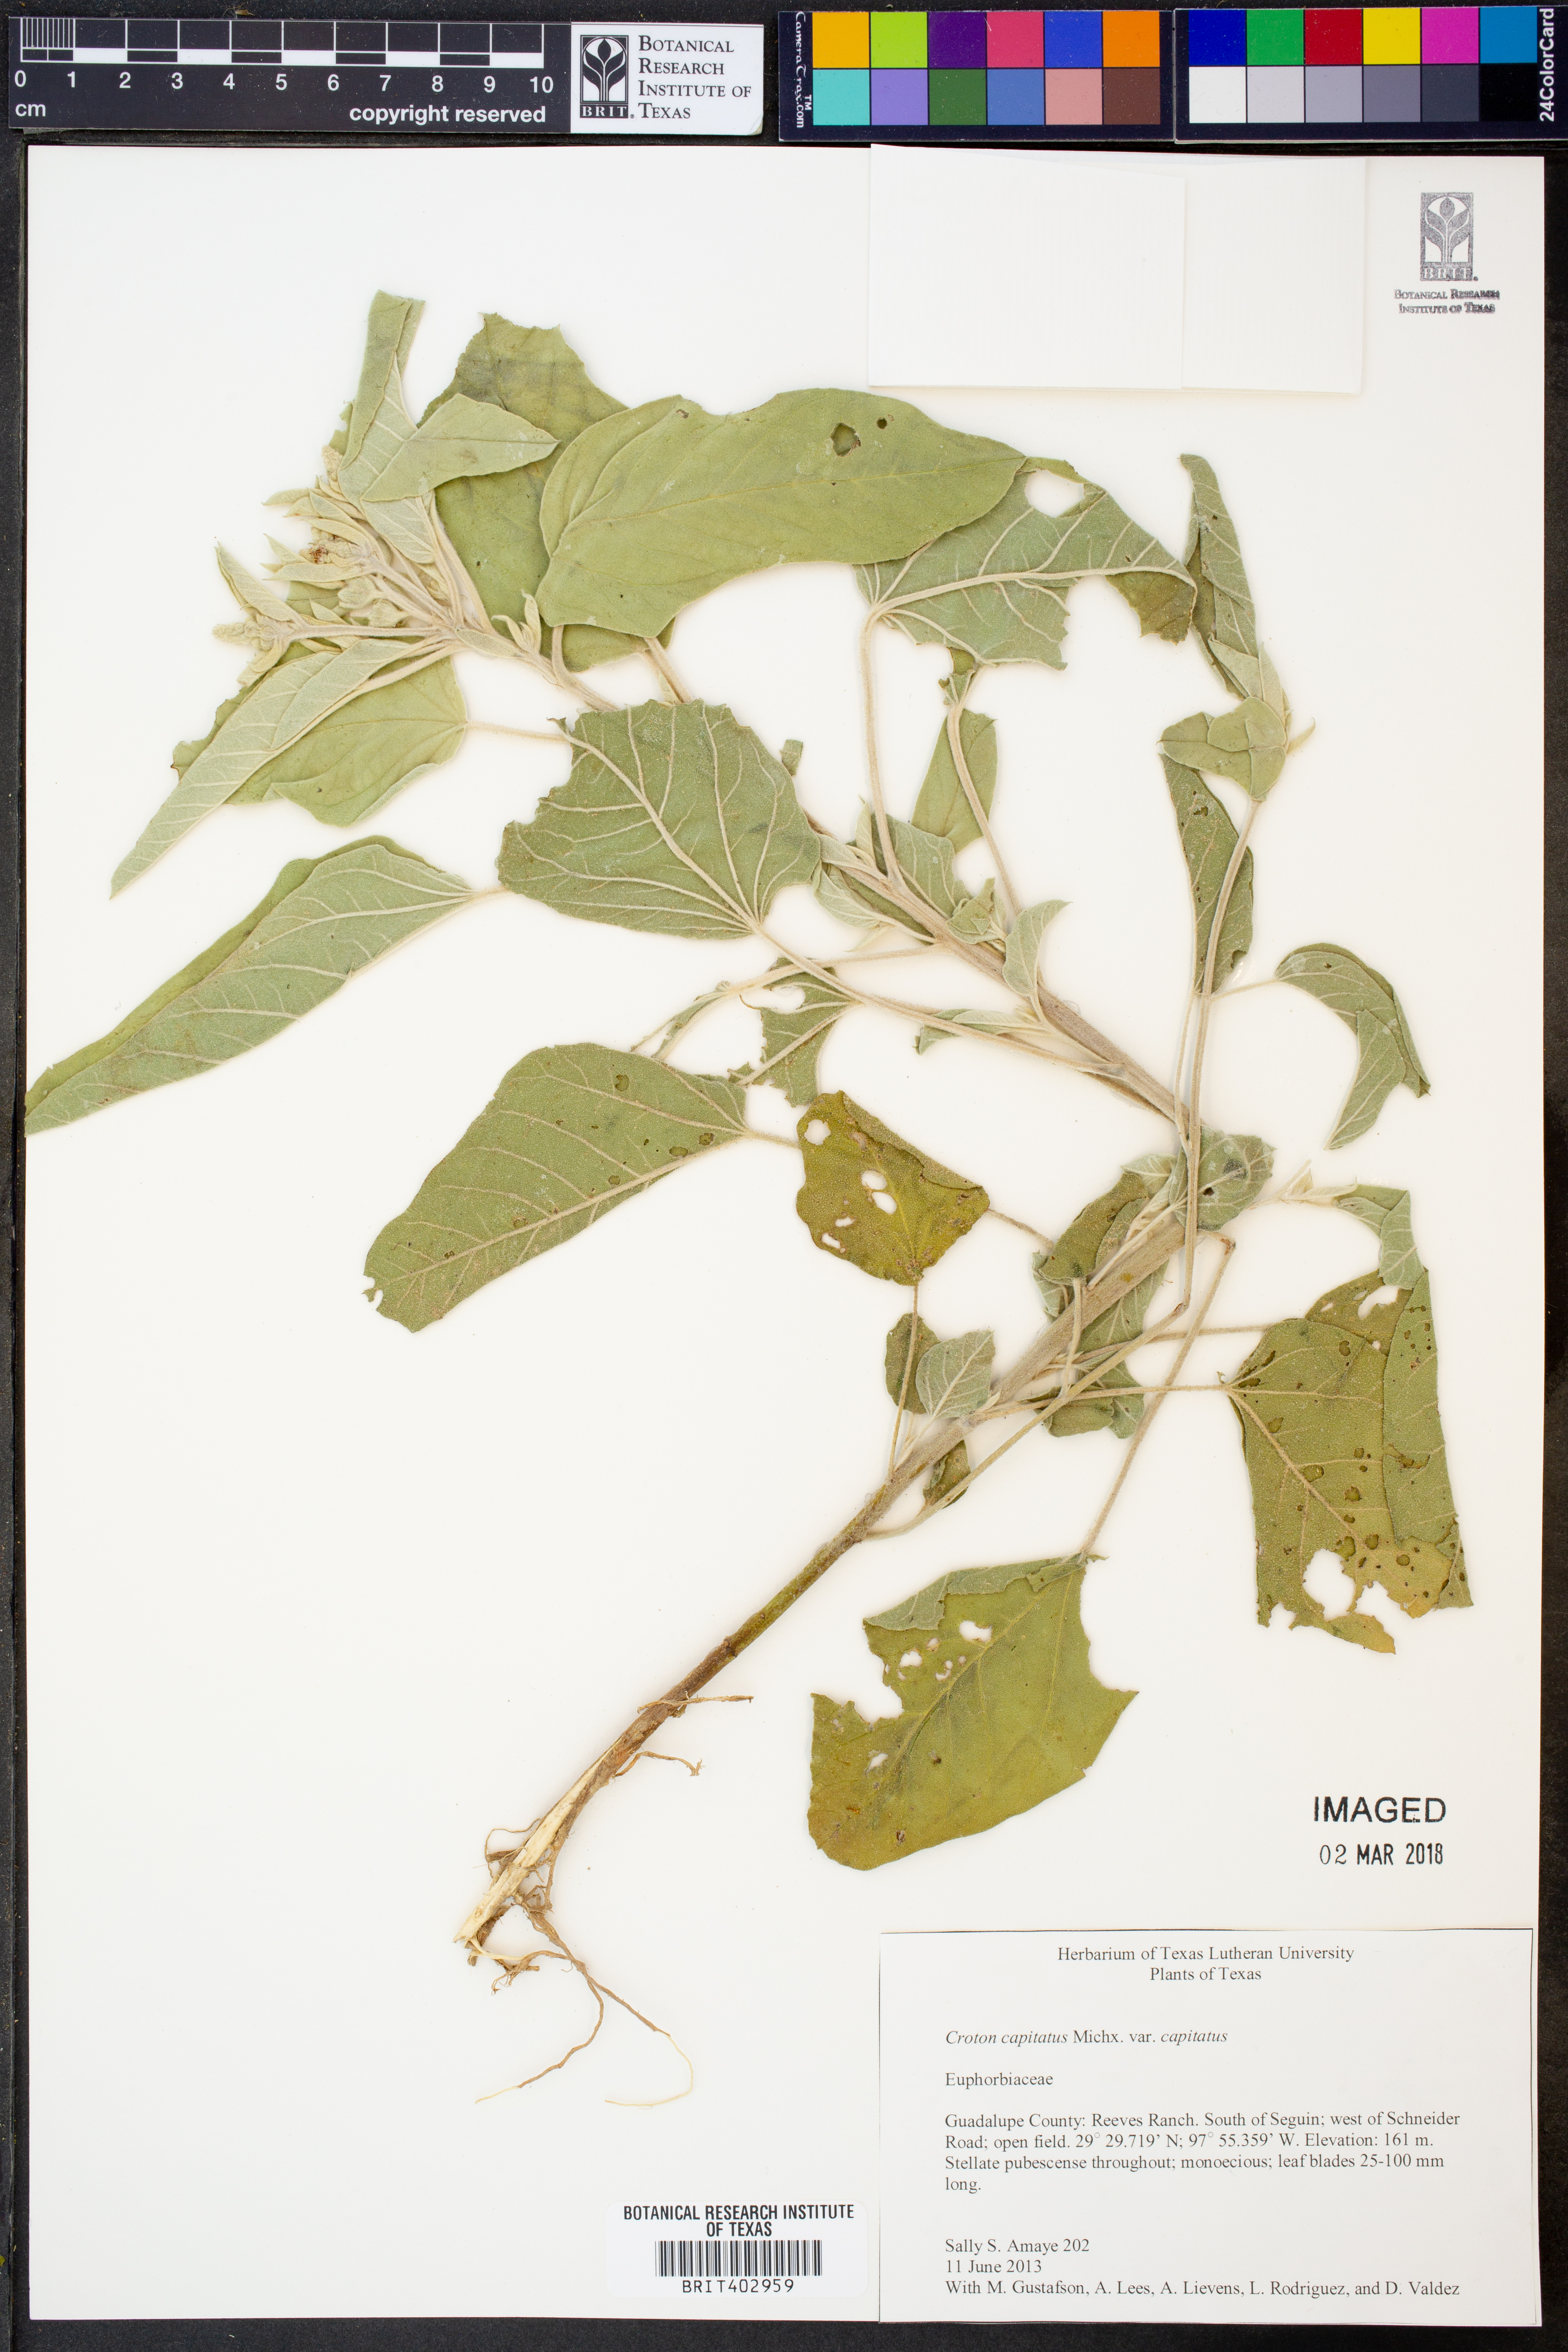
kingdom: Plantae
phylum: Tracheophyta
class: Magnoliopsida
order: Malpighiales
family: Euphorbiaceae
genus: Croton
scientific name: Croton capitatus
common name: Woolly croton
